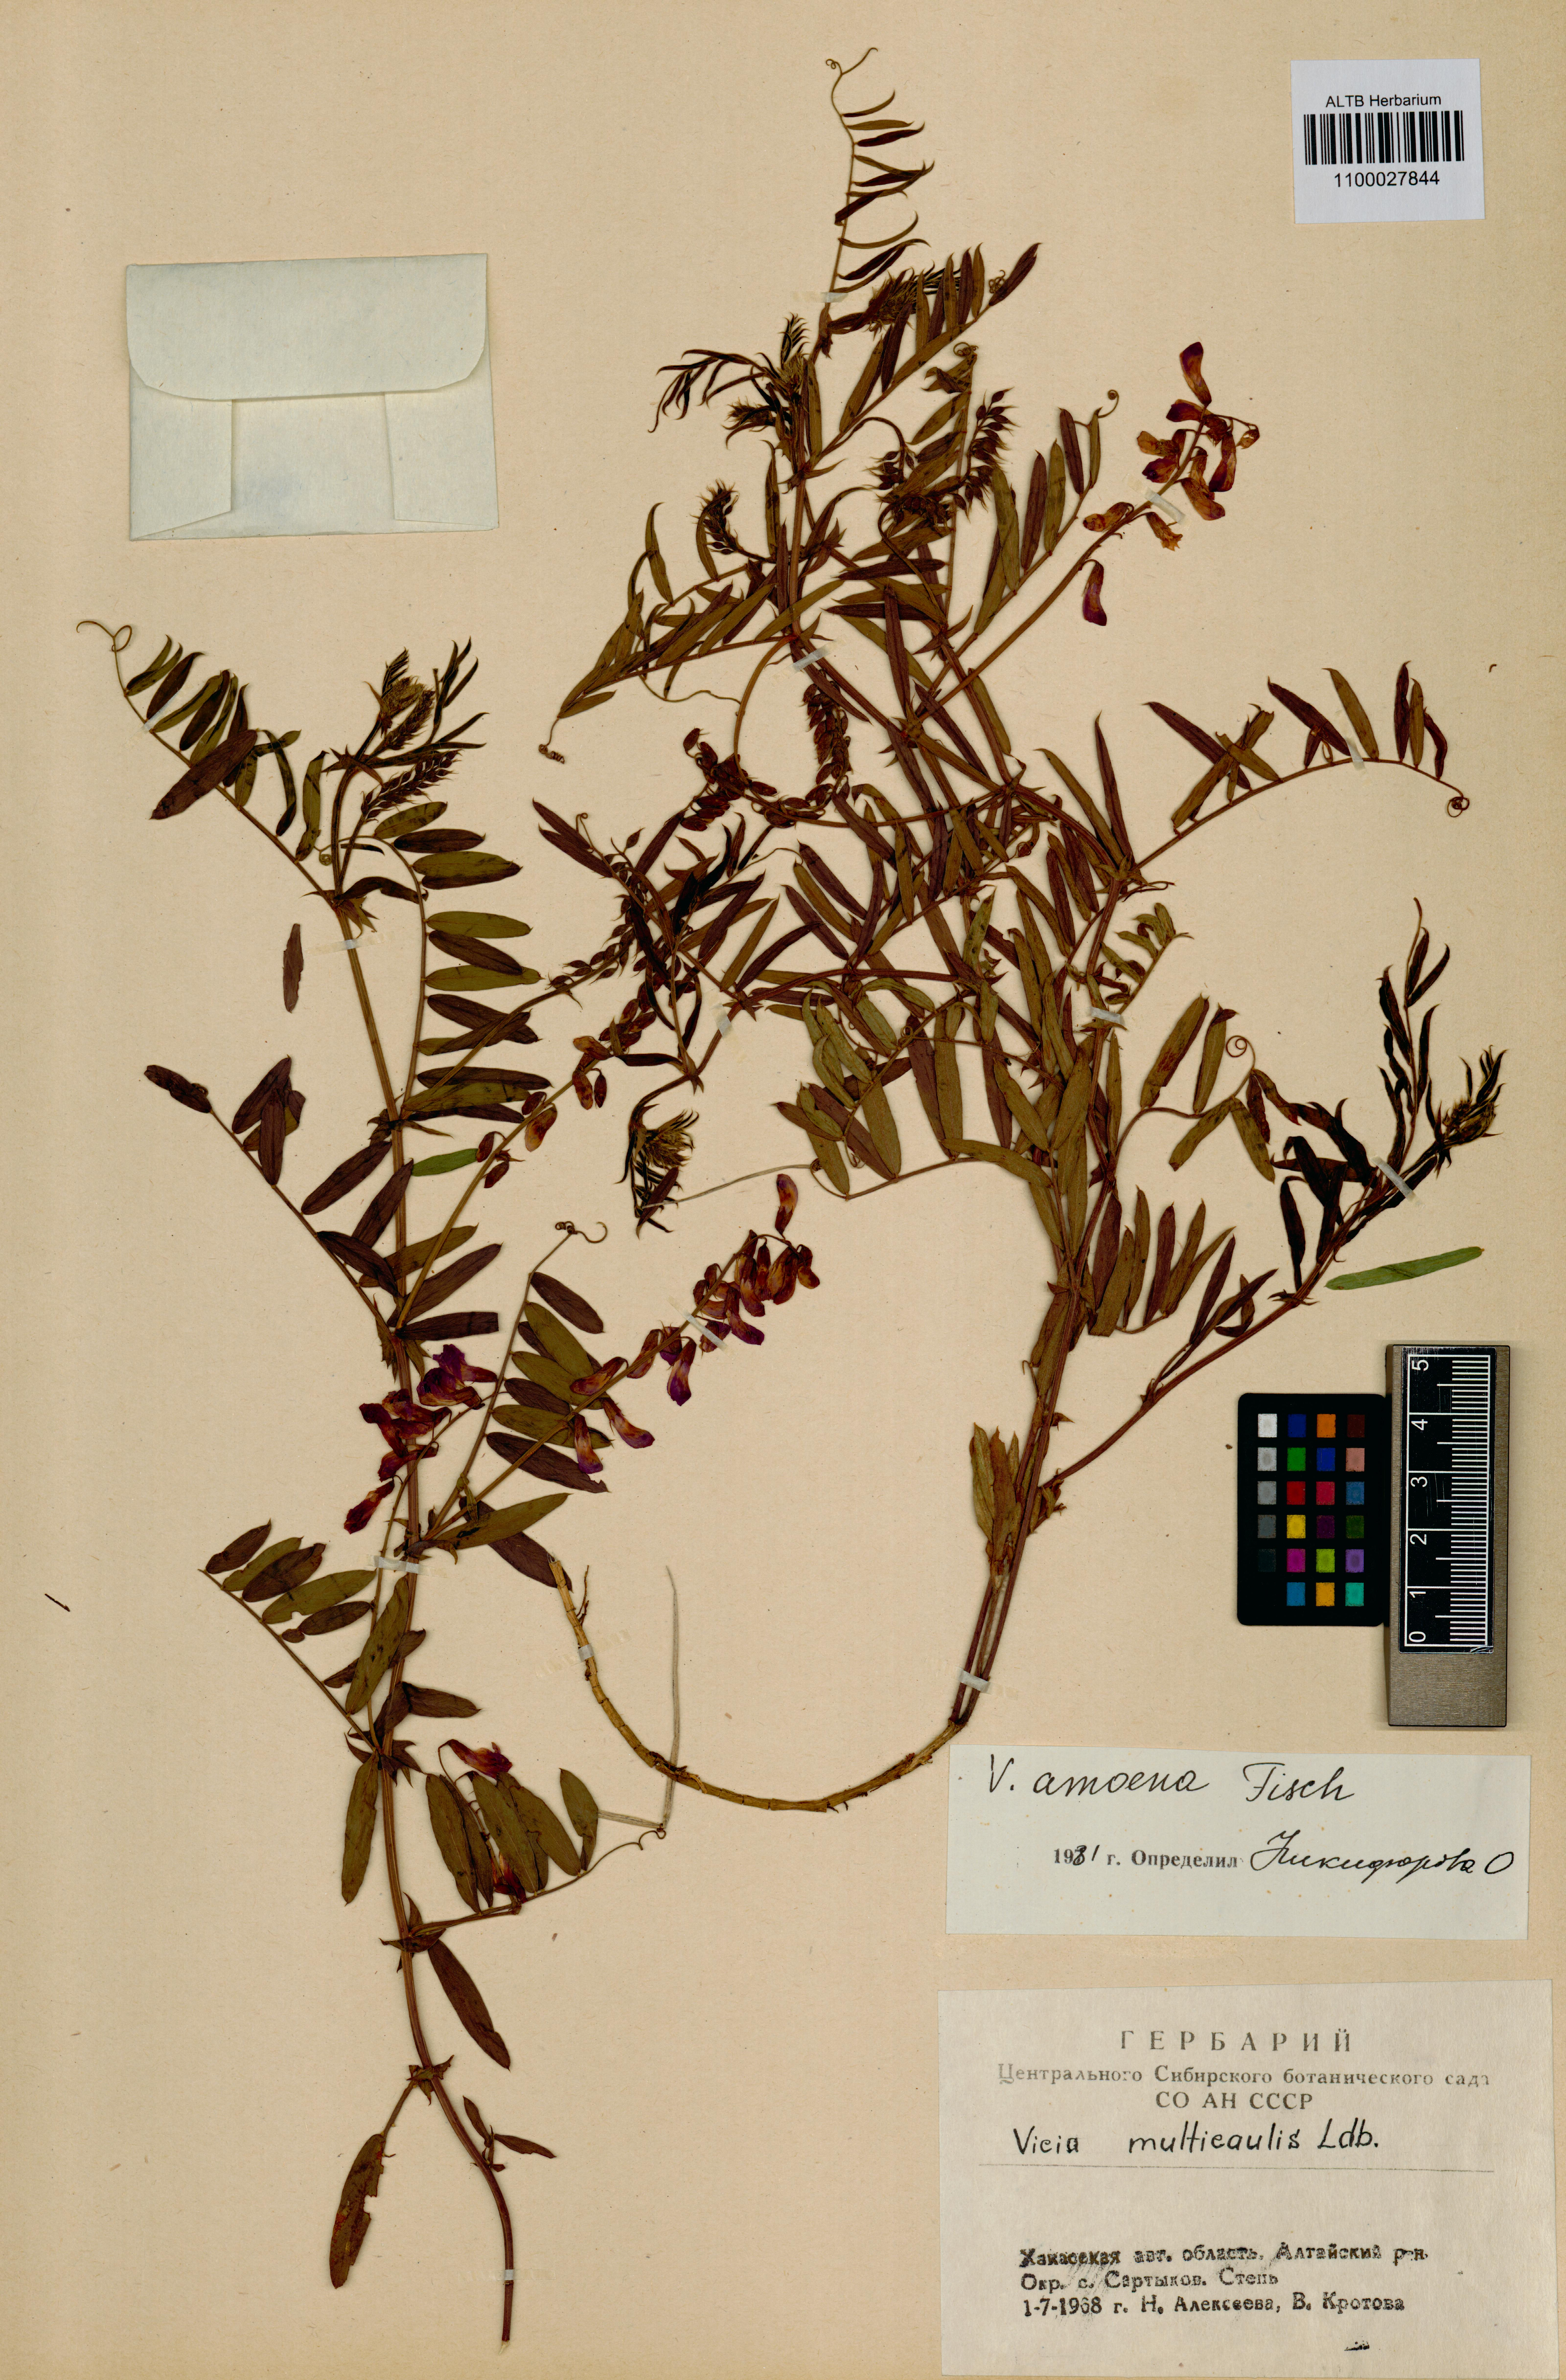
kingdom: Plantae
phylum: Tracheophyta
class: Magnoliopsida
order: Fabales
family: Fabaceae
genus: Vicia
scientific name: Vicia amoena
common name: Cheder ebs
